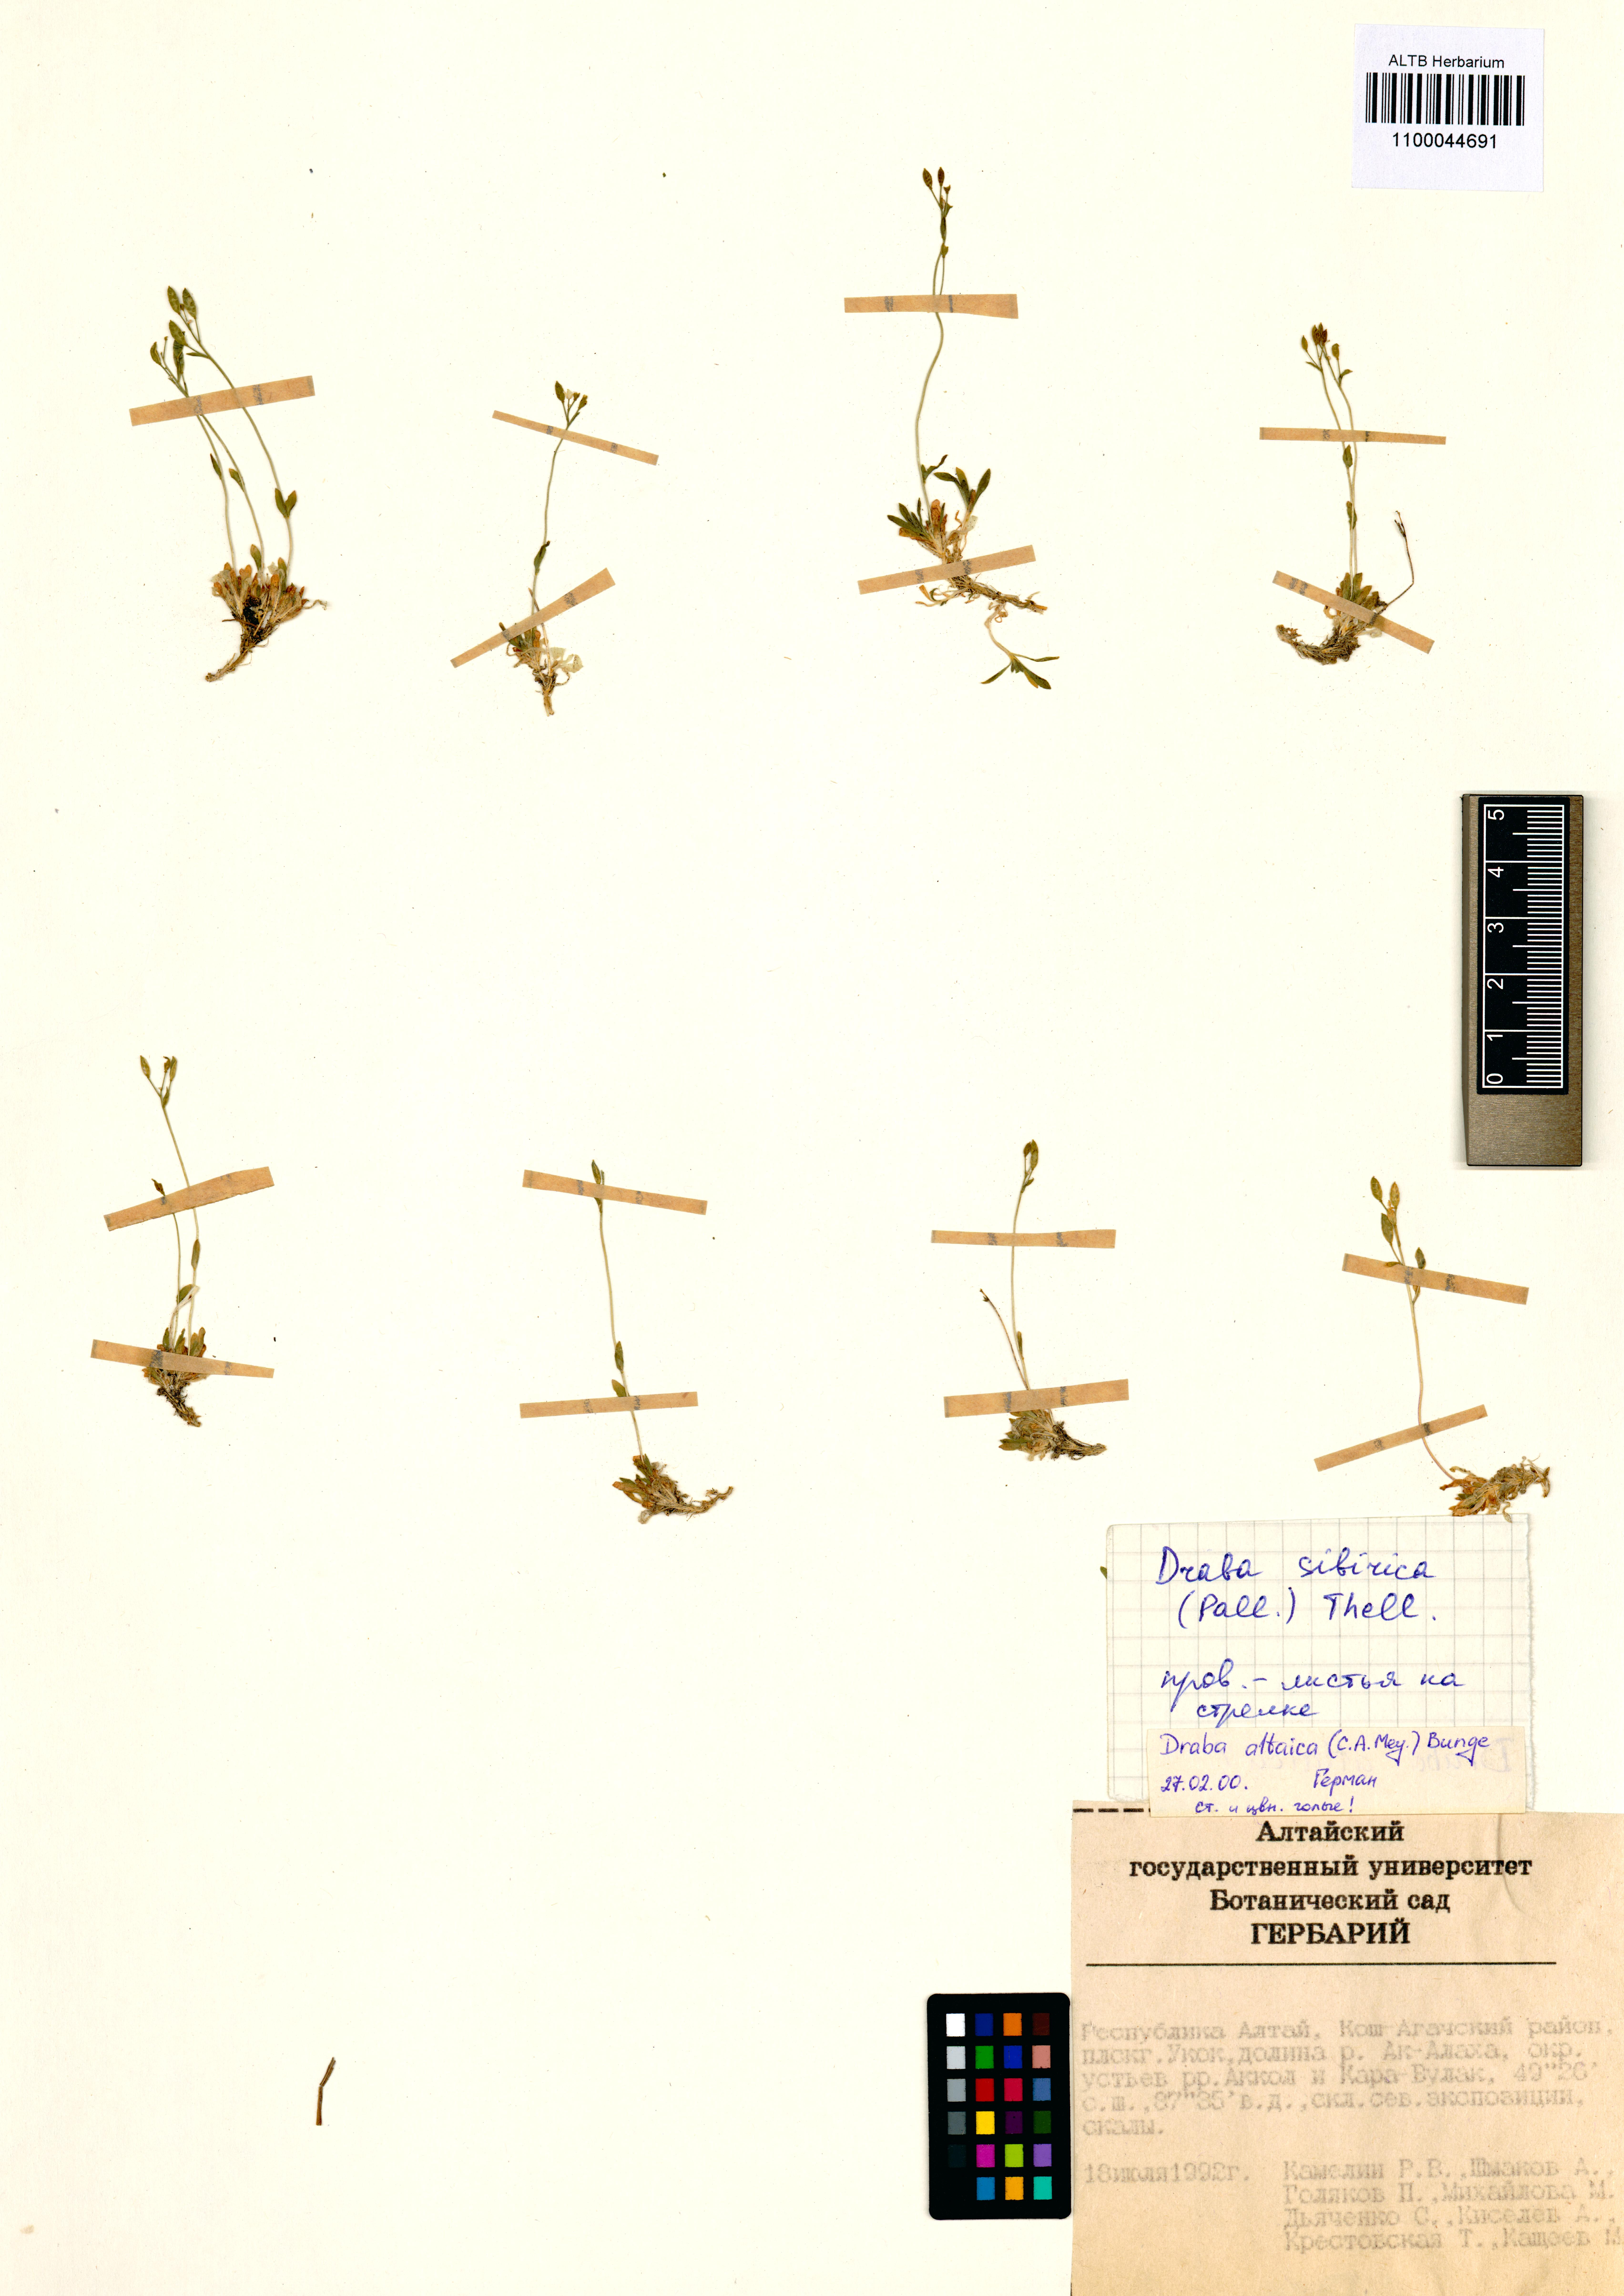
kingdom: Plantae
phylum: Tracheophyta
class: Magnoliopsida
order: Brassicales
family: Brassicaceae
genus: Draba
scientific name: Draba altaica
